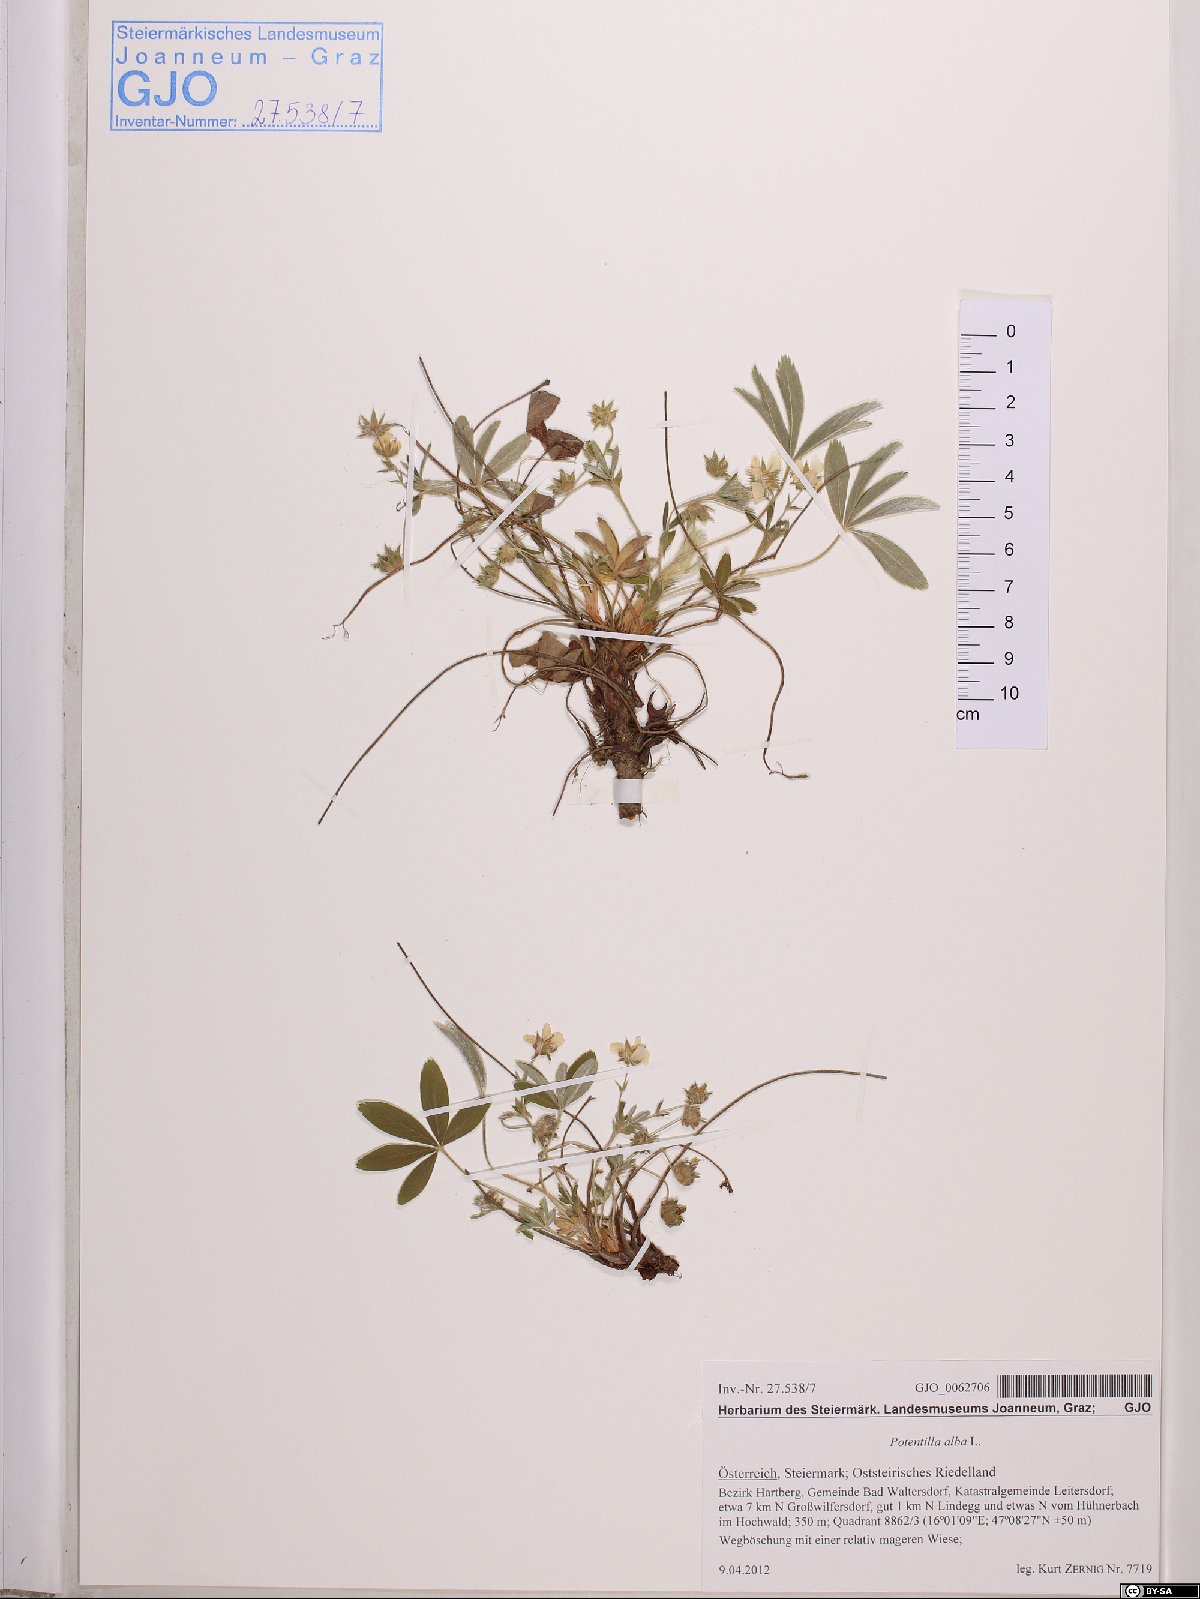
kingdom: Plantae
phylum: Tracheophyta
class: Magnoliopsida
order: Rosales
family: Rosaceae
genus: Potentilla
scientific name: Potentilla alba
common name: White cinquefoil
